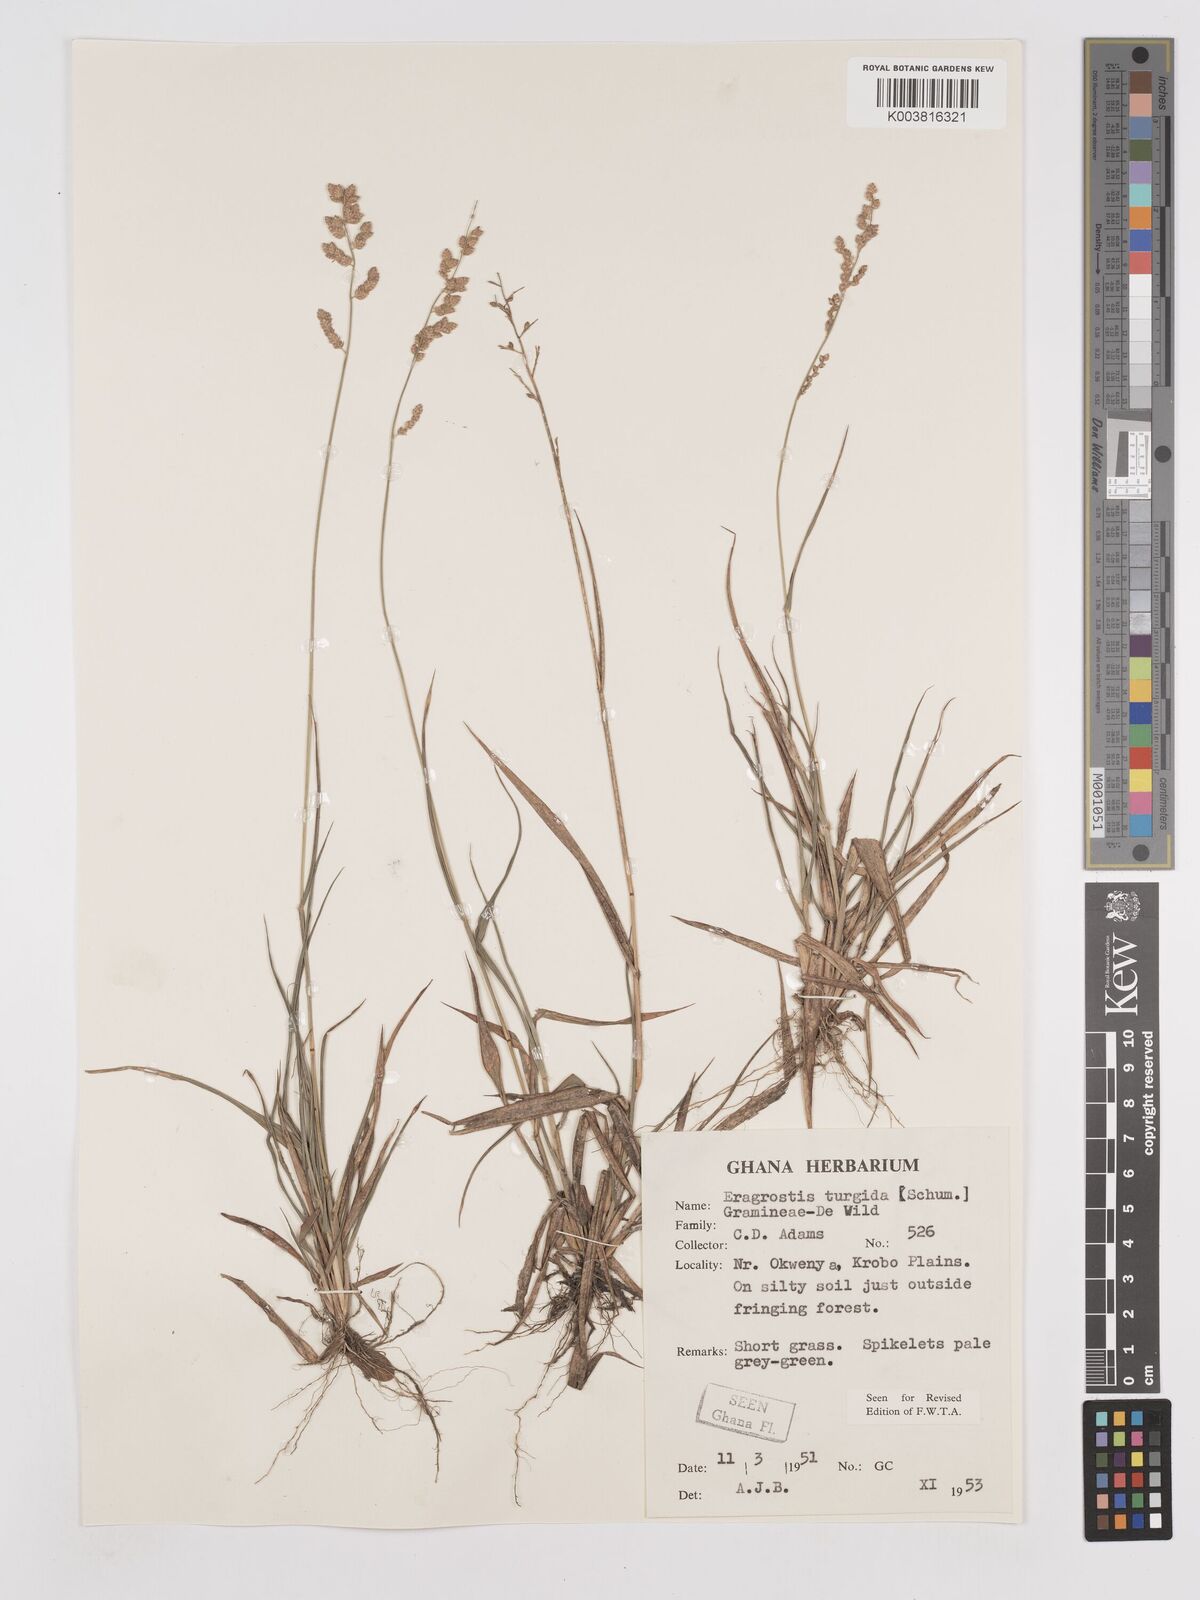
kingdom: Plantae
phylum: Tracheophyta
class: Liliopsida
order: Poales
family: Poaceae
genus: Eragrostis
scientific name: Eragrostis turgida
